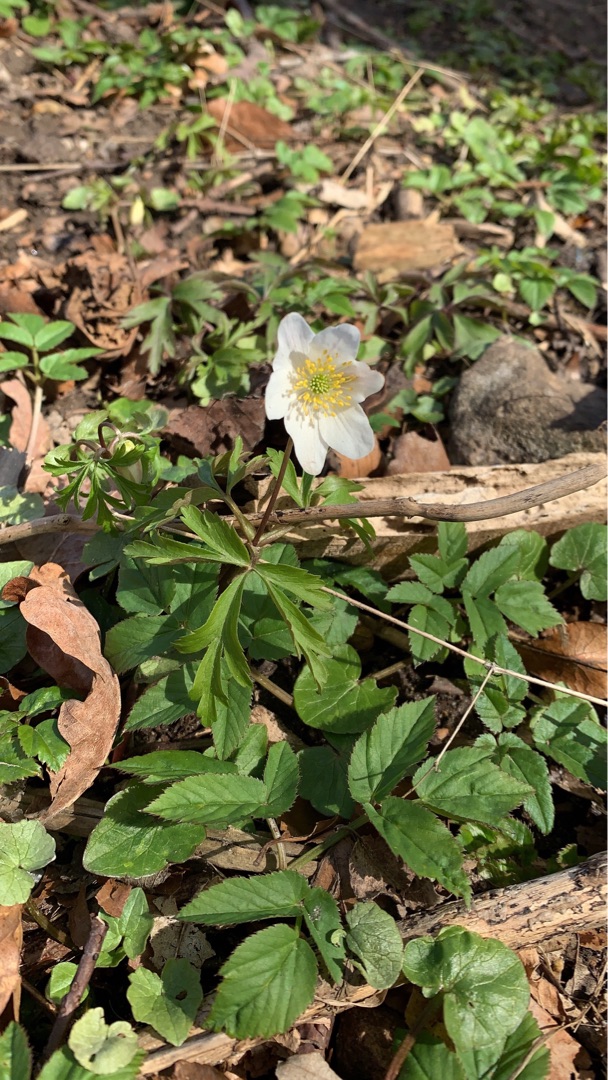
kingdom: Plantae
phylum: Tracheophyta
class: Magnoliopsida
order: Ranunculales
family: Ranunculaceae
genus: Anemone
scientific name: Anemone nemorosa
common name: Hvid anemone
